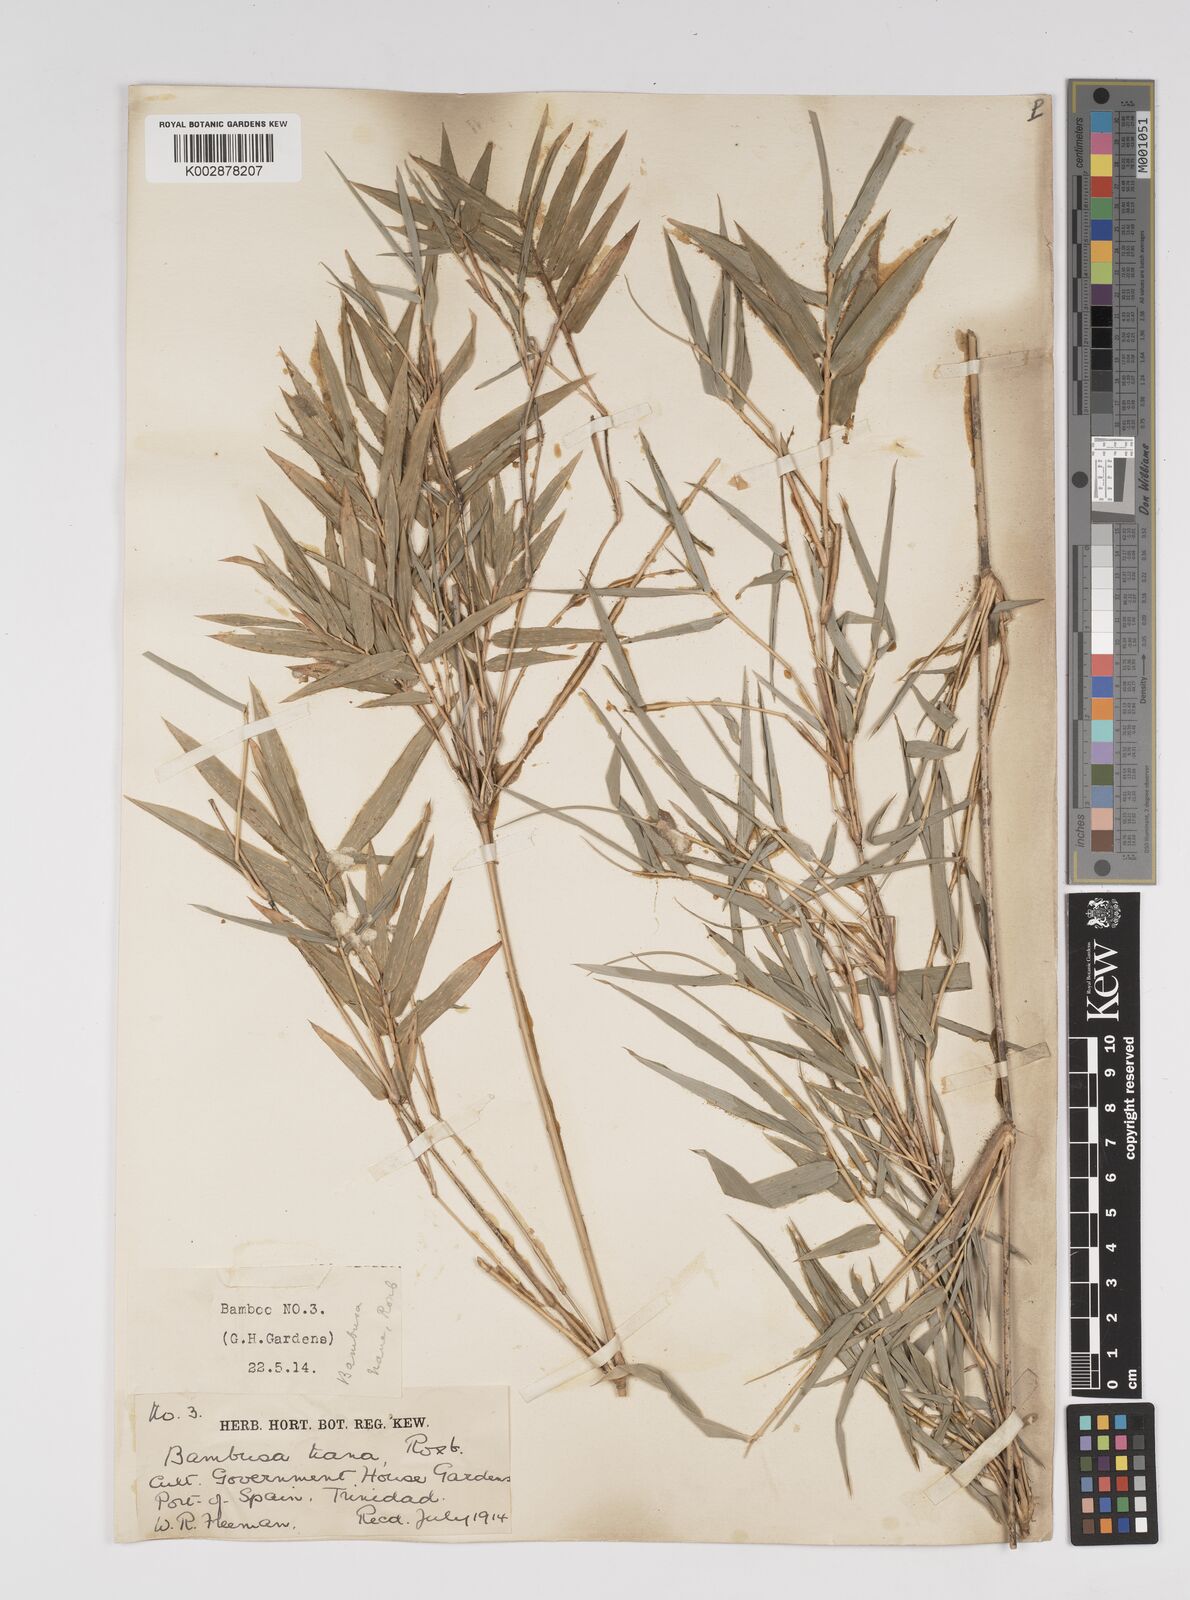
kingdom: Plantae
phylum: Tracheophyta
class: Liliopsida
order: Poales
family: Poaceae
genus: Bambusa
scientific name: Bambusa multiplex
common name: Hedge bamboo
